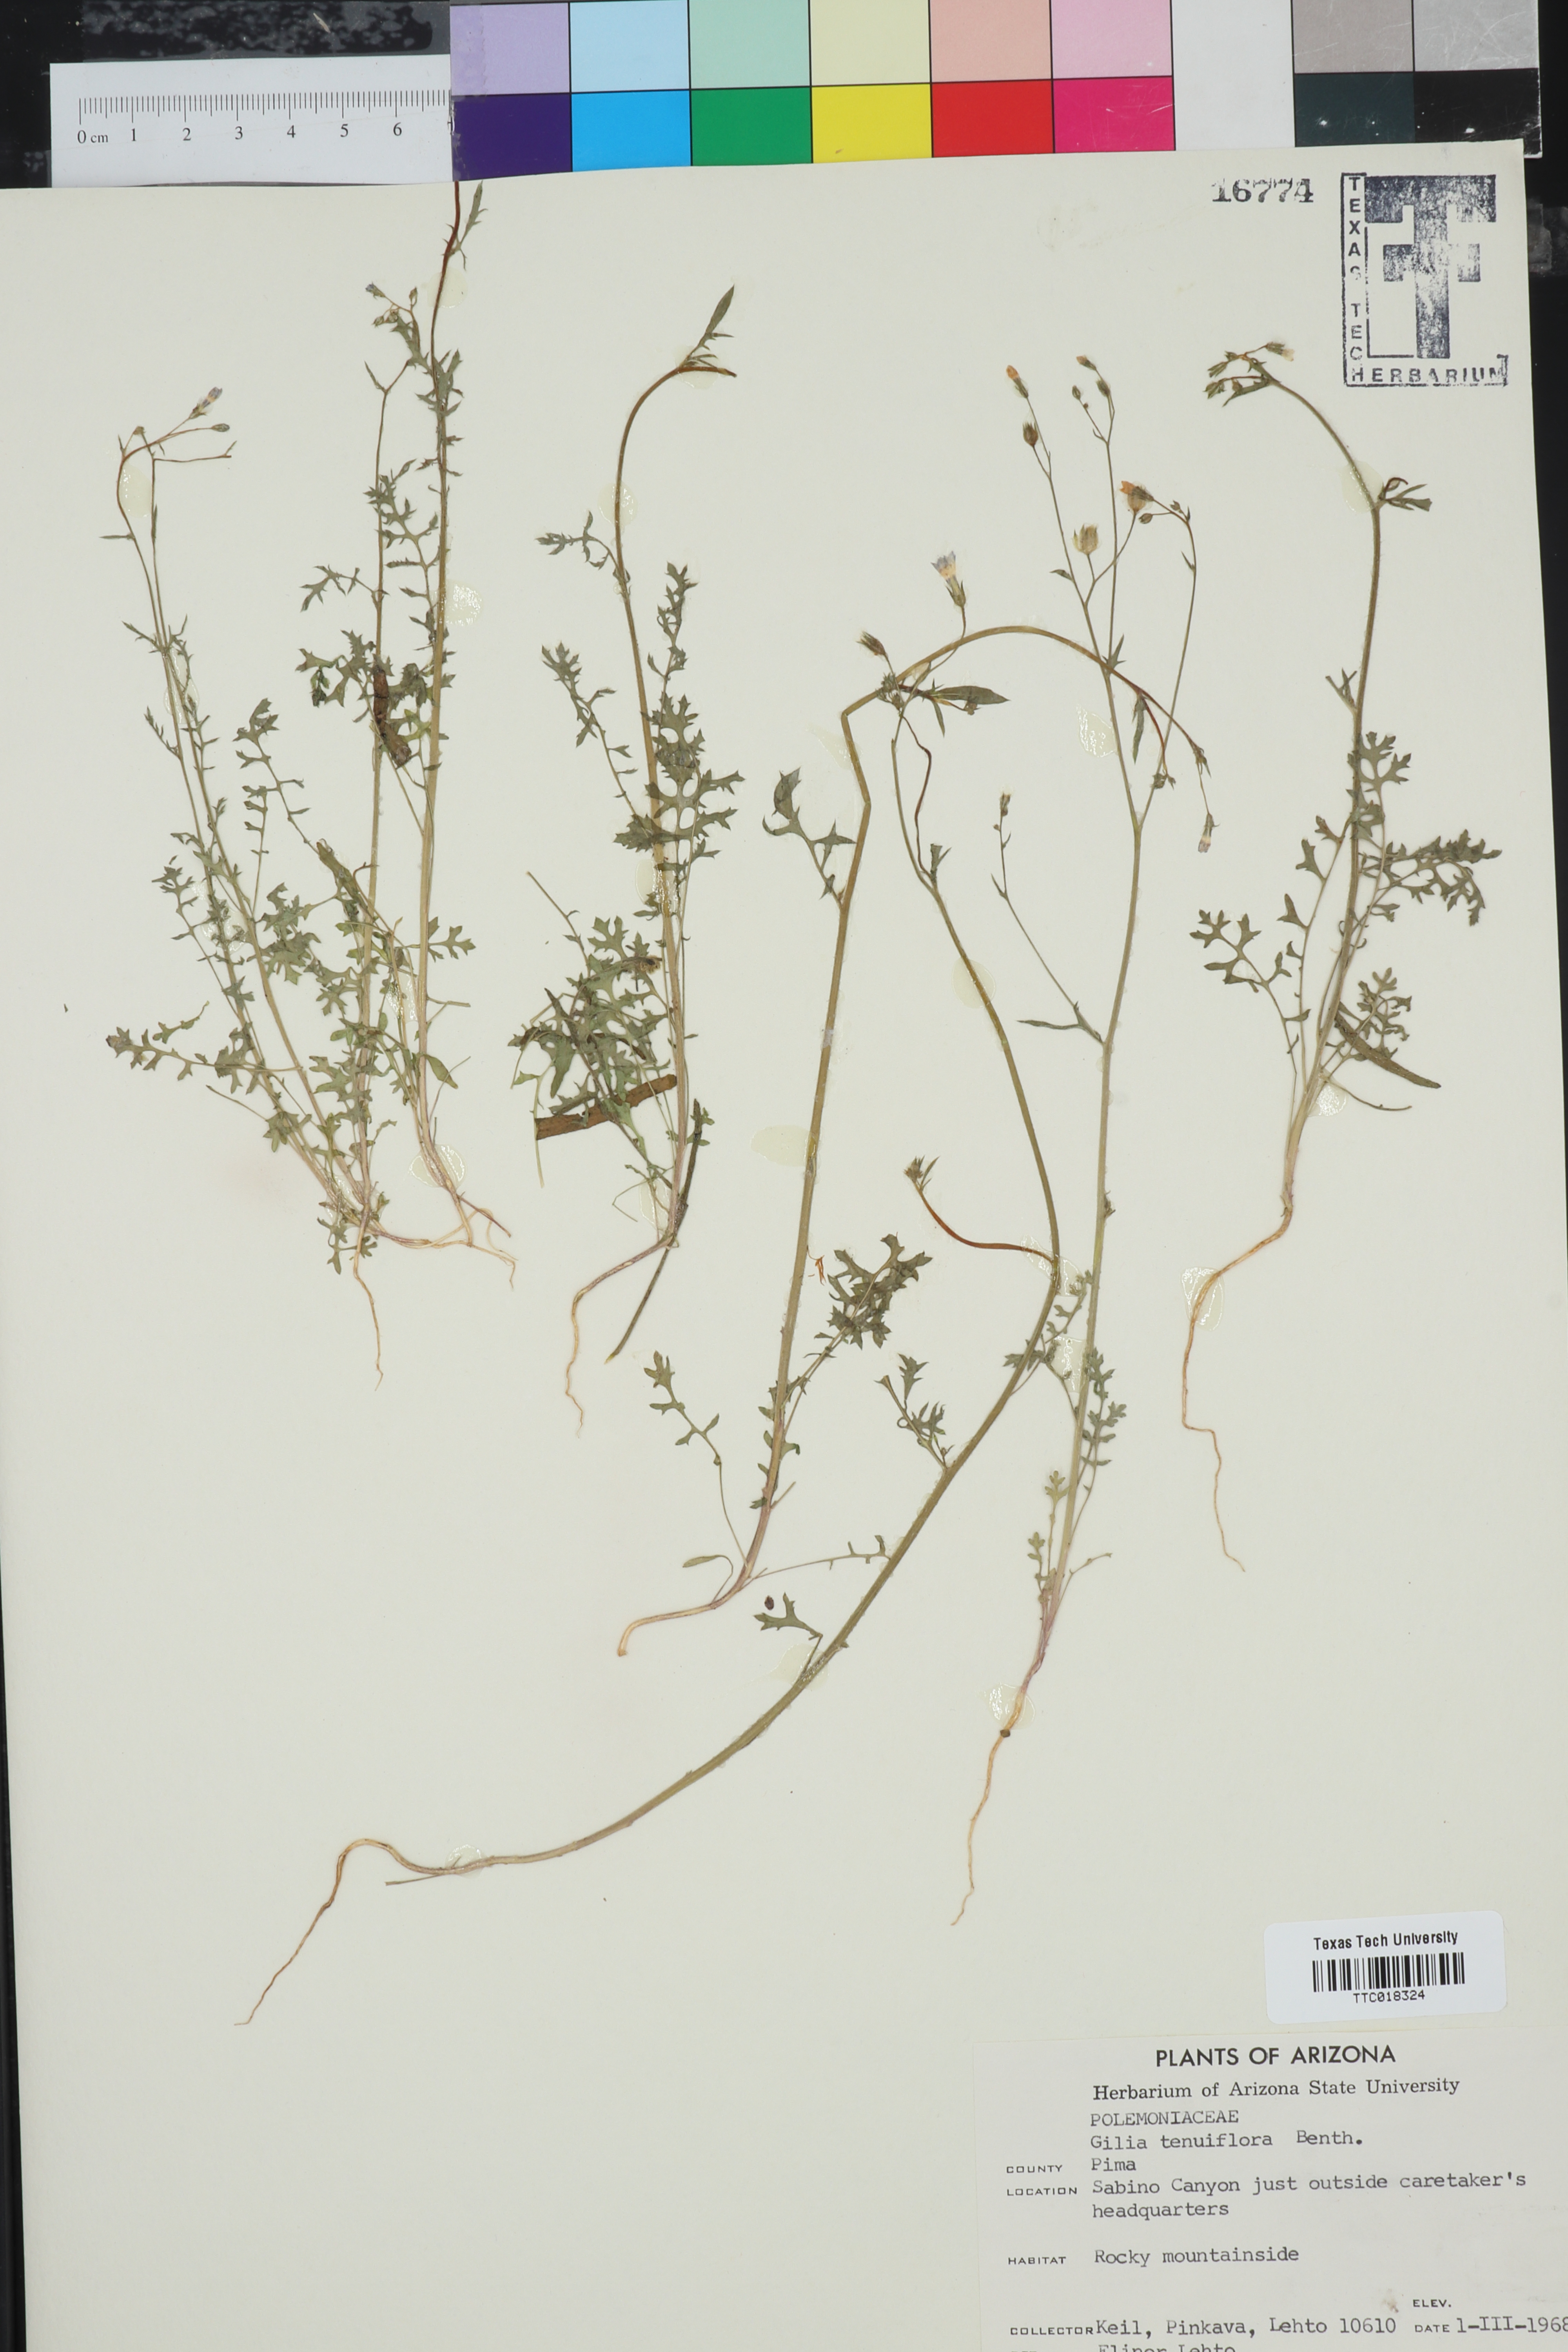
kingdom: Plantae
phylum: Tracheophyta
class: Magnoliopsida
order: Ericales
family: Polemoniaceae
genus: Gilia
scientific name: Gilia tenuiflora
